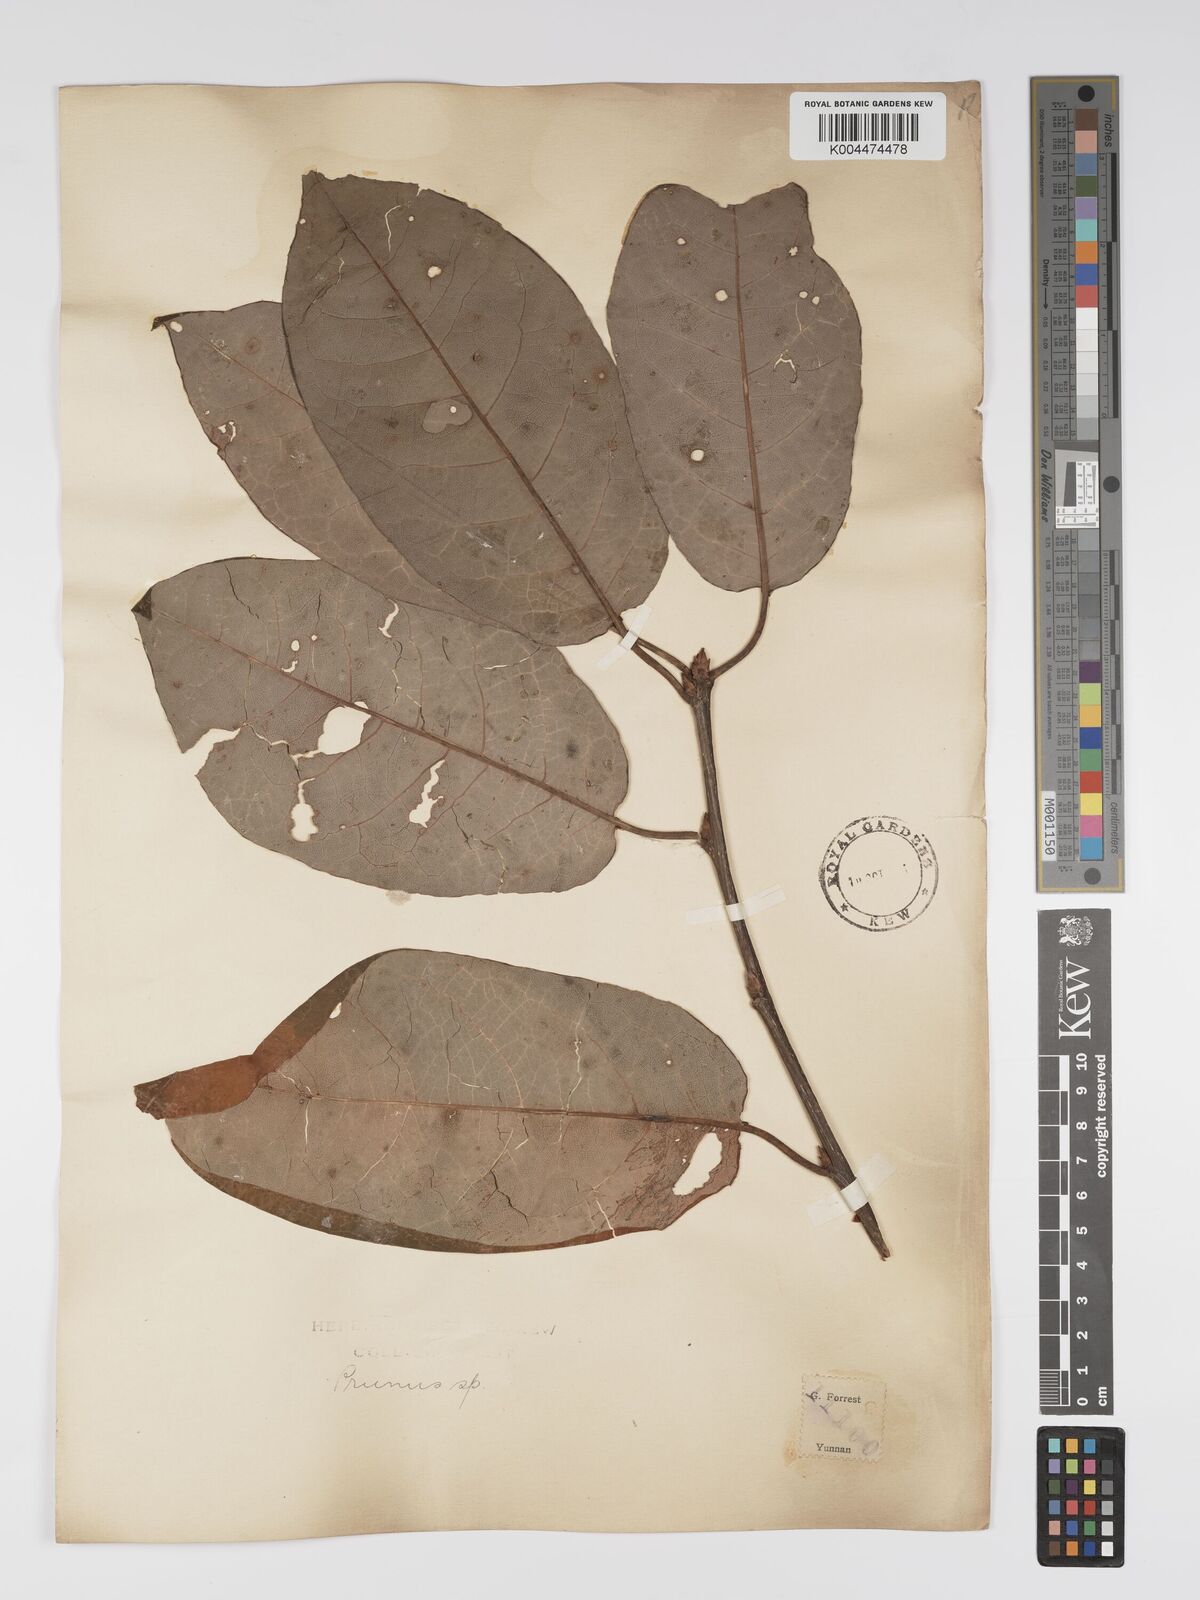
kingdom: Plantae
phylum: Tracheophyta
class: Magnoliopsida
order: Rosales
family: Rosaceae
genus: Prunus
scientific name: Prunus
